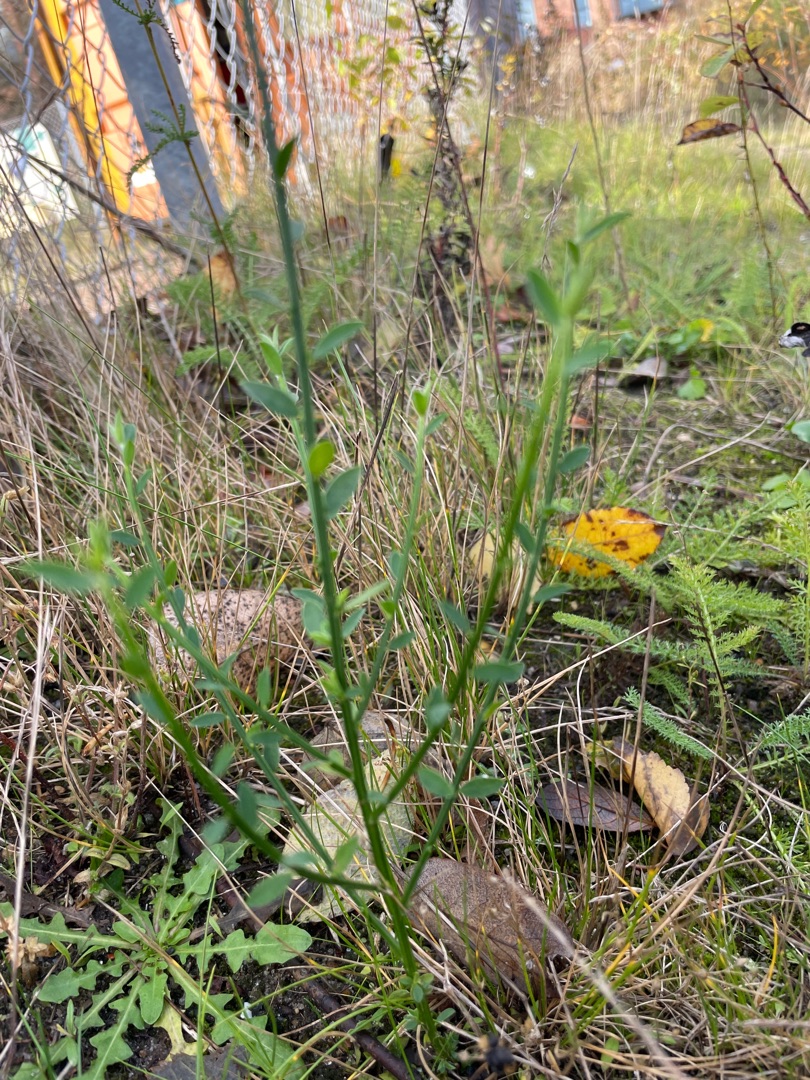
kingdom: Plantae
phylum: Tracheophyta
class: Magnoliopsida
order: Fabales
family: Fabaceae
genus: Cytisus
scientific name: Cytisus scoparius
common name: Almindelig gyvel
